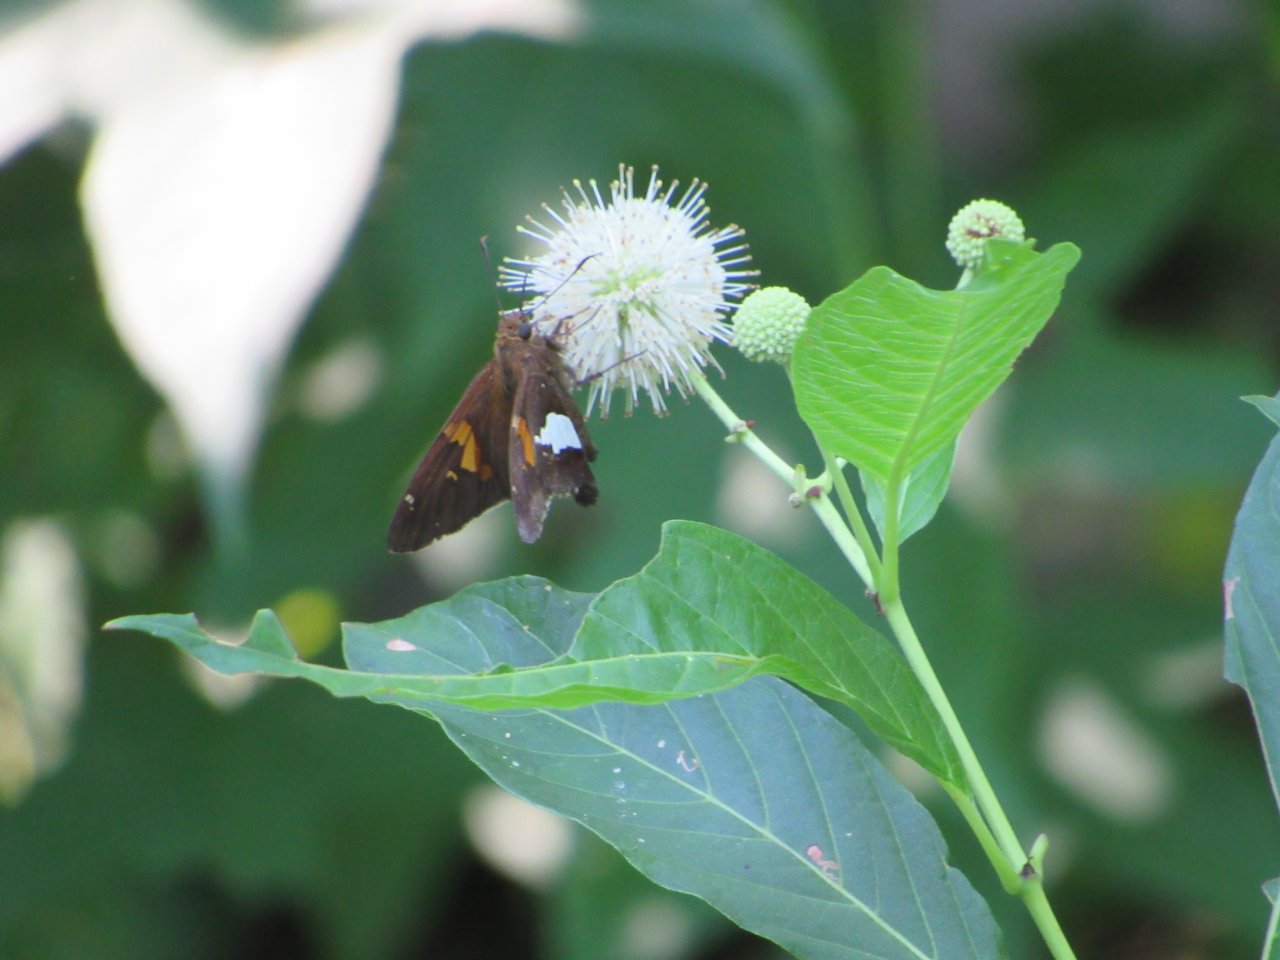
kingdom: Animalia
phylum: Arthropoda
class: Insecta
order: Lepidoptera
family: Hesperiidae
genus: Epargyreus
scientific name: Epargyreus clarus
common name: Silver-spotted Skipper
